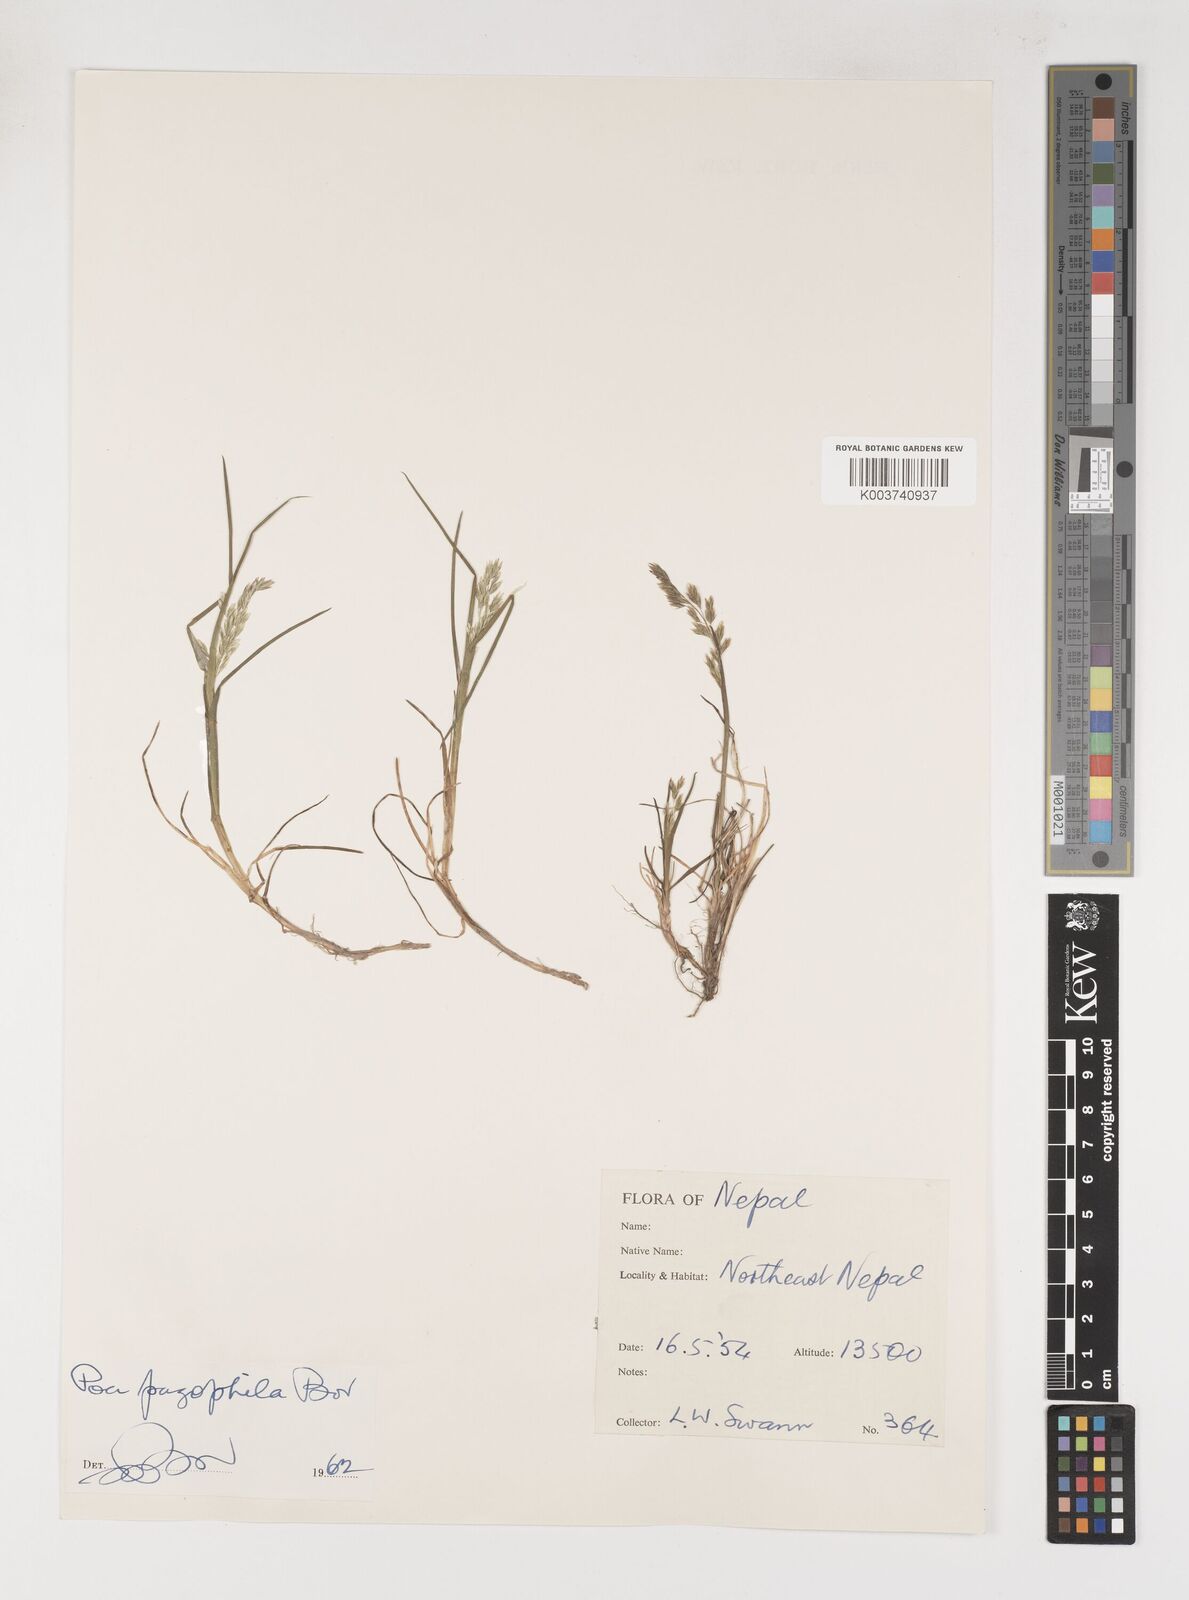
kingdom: Plantae
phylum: Tracheophyta
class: Liliopsida
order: Poales
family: Poaceae
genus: Poa
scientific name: Poa pagophila
